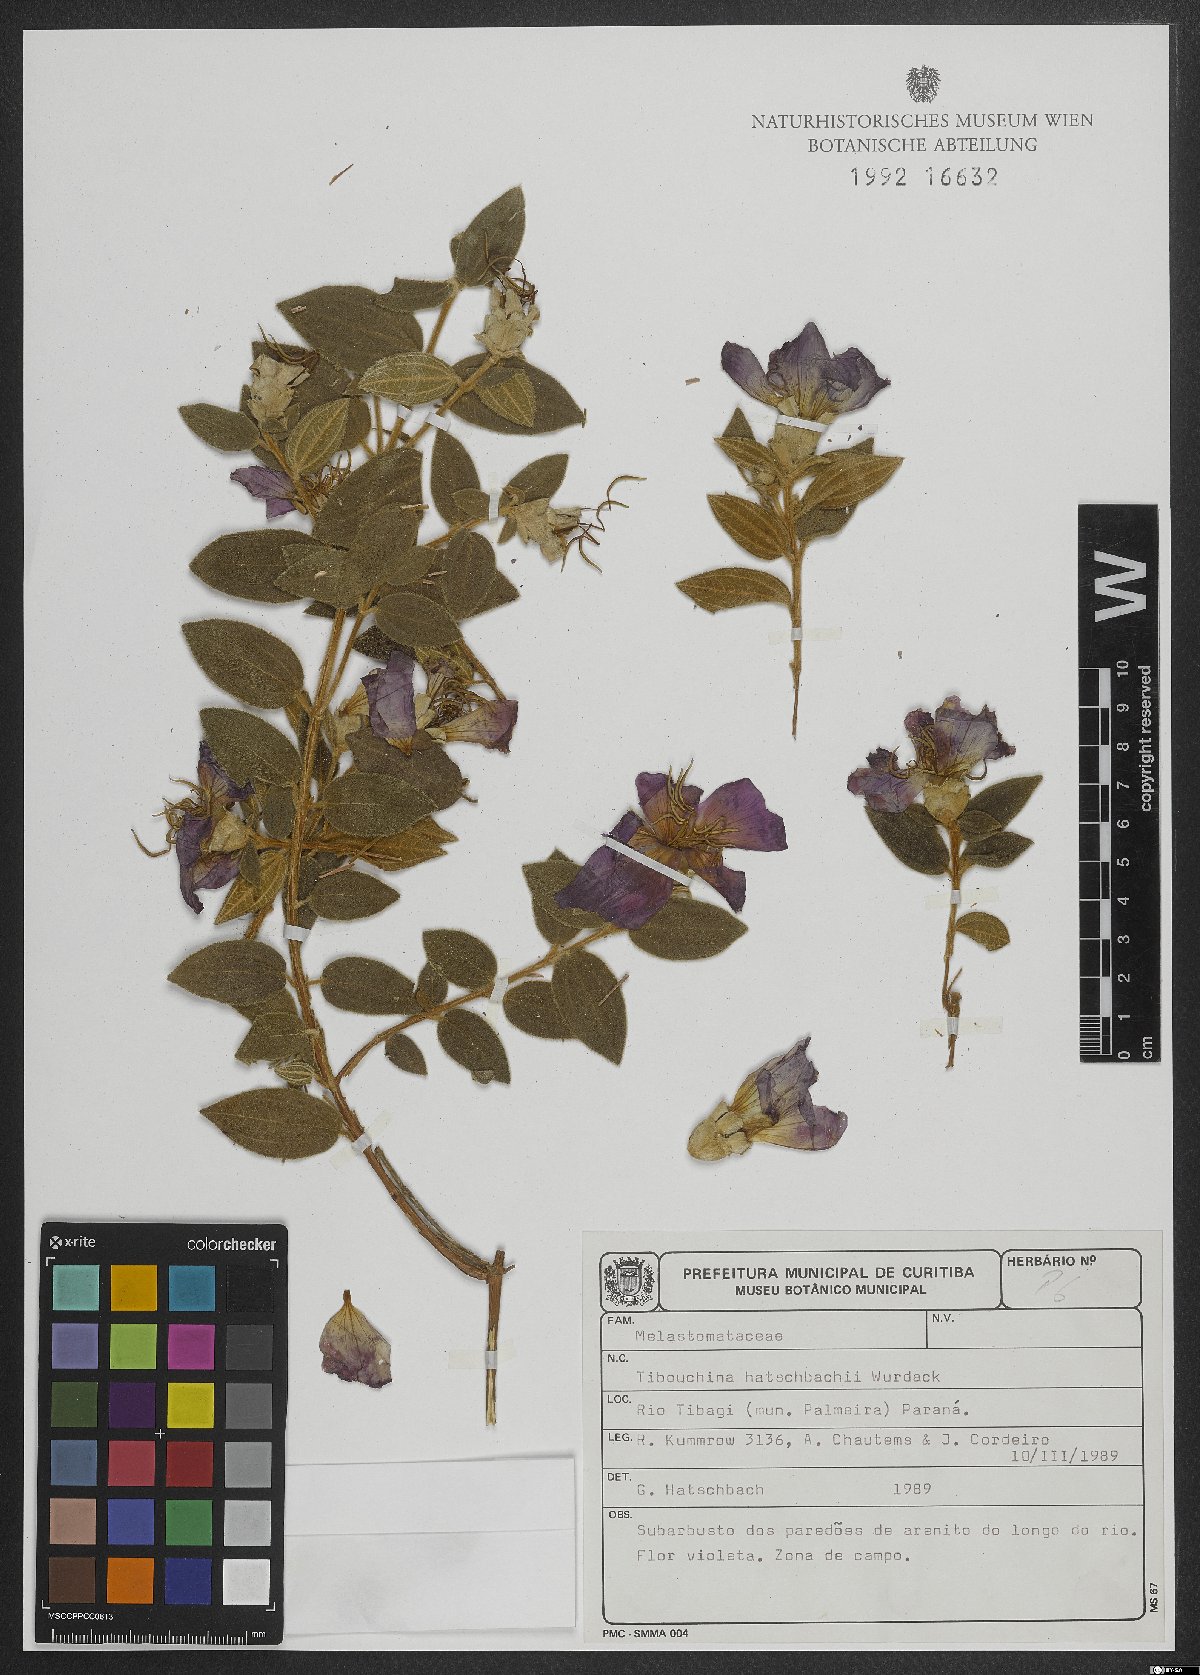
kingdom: Plantae
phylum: Tracheophyta
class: Magnoliopsida
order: Myrtales
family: Melastomataceae
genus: Pleroma
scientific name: Pleroma hatschbachii
